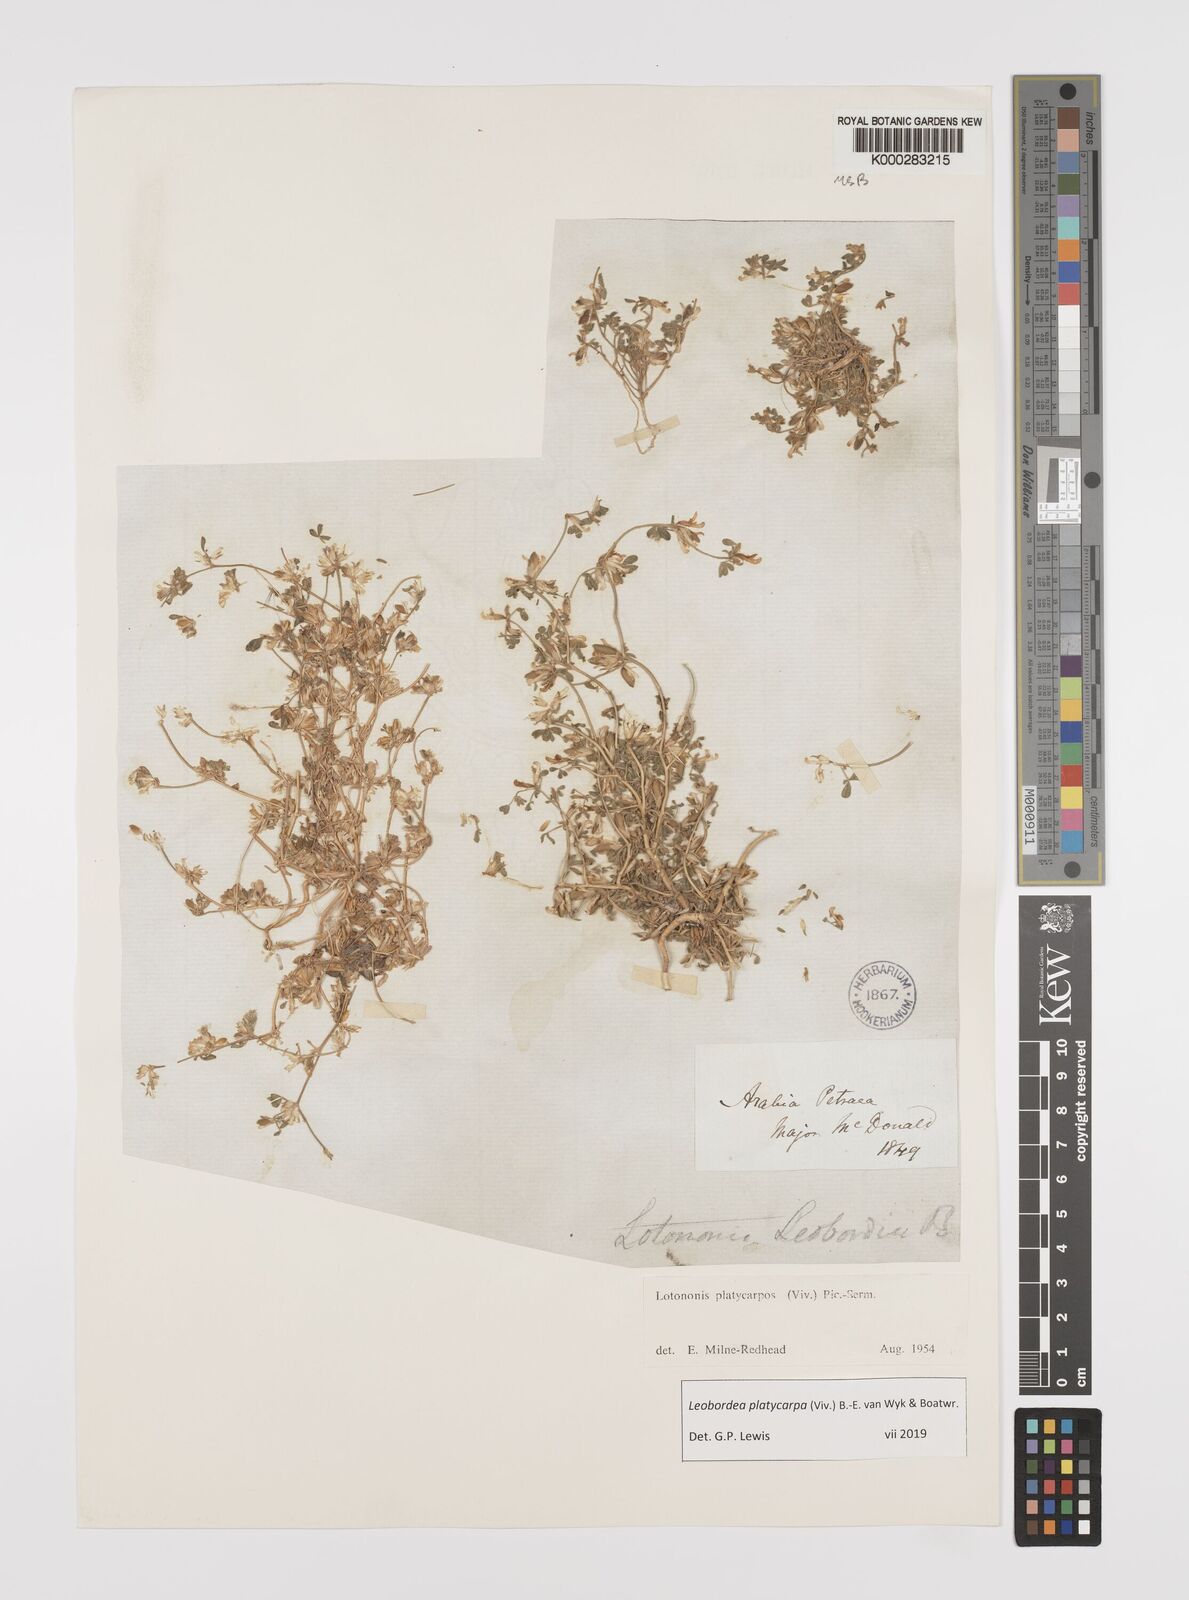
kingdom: Plantae
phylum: Tracheophyta
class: Magnoliopsida
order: Fabales
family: Fabaceae
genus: Leobordea
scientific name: Leobordea platycarpa
